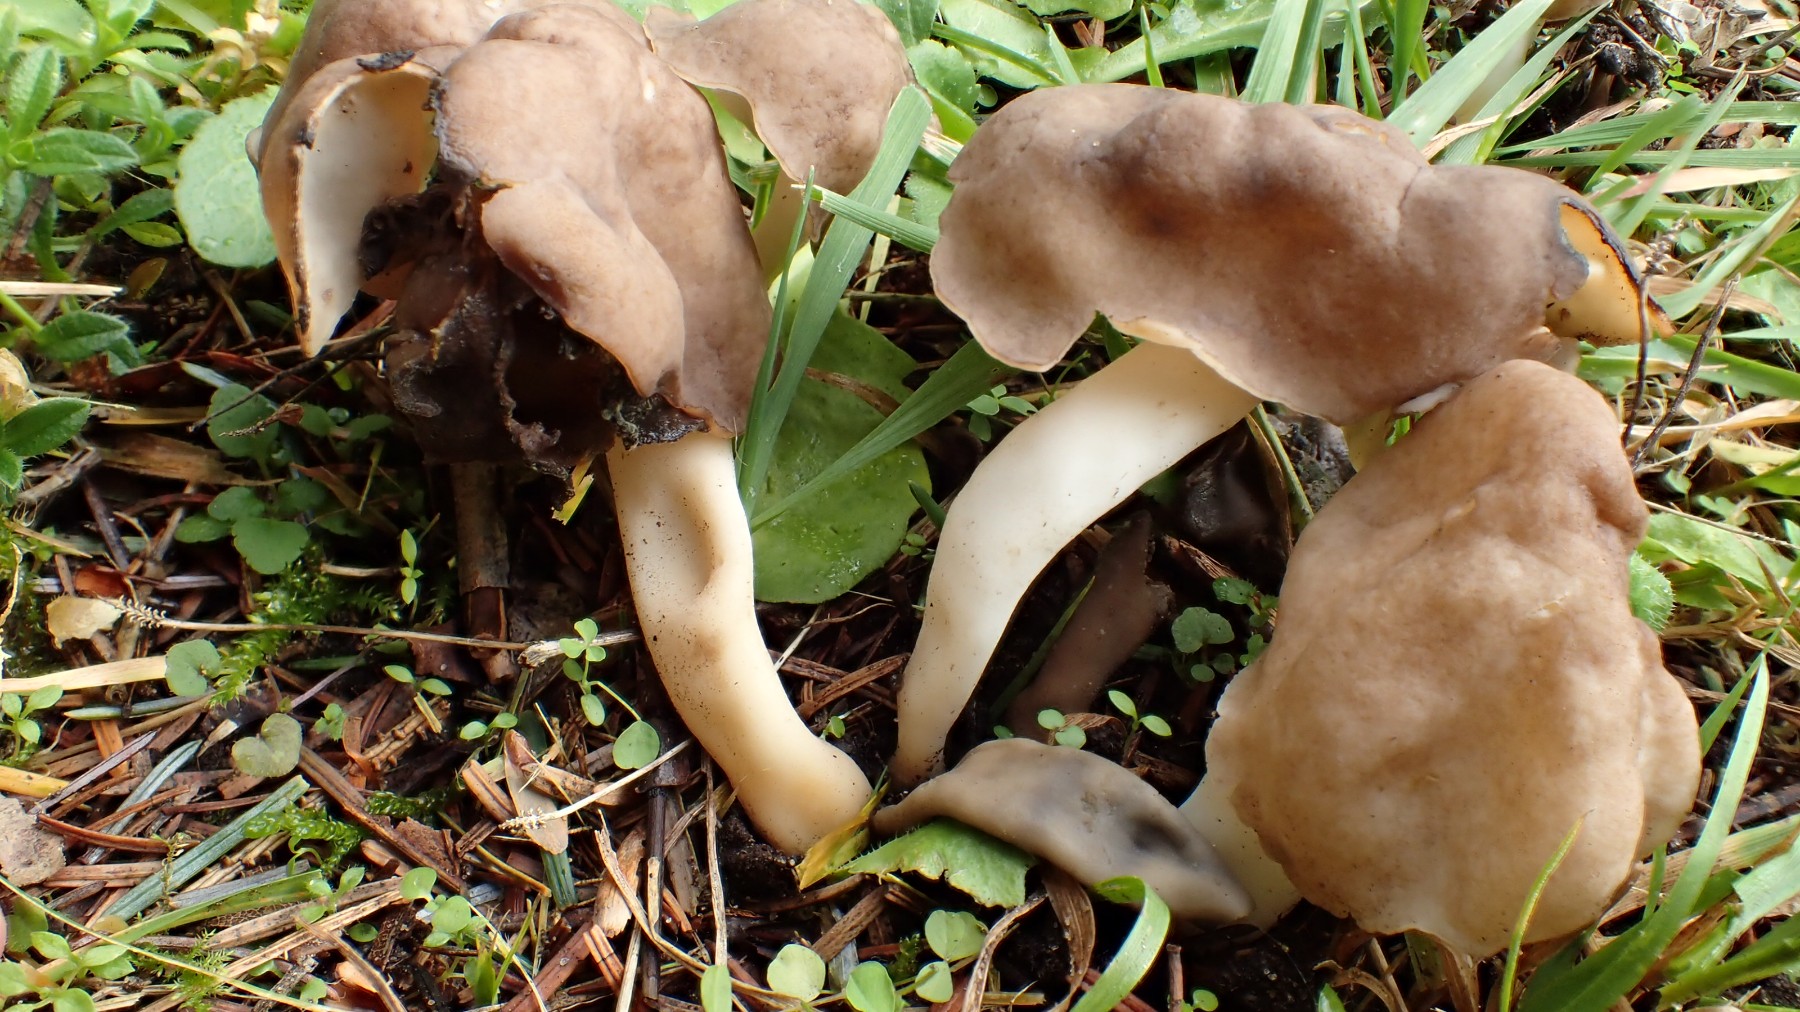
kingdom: Fungi
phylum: Ascomycota
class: Pezizomycetes
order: Pezizales
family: Helvellaceae
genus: Helvella
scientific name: Helvella elastica
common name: elastik-foldhat
